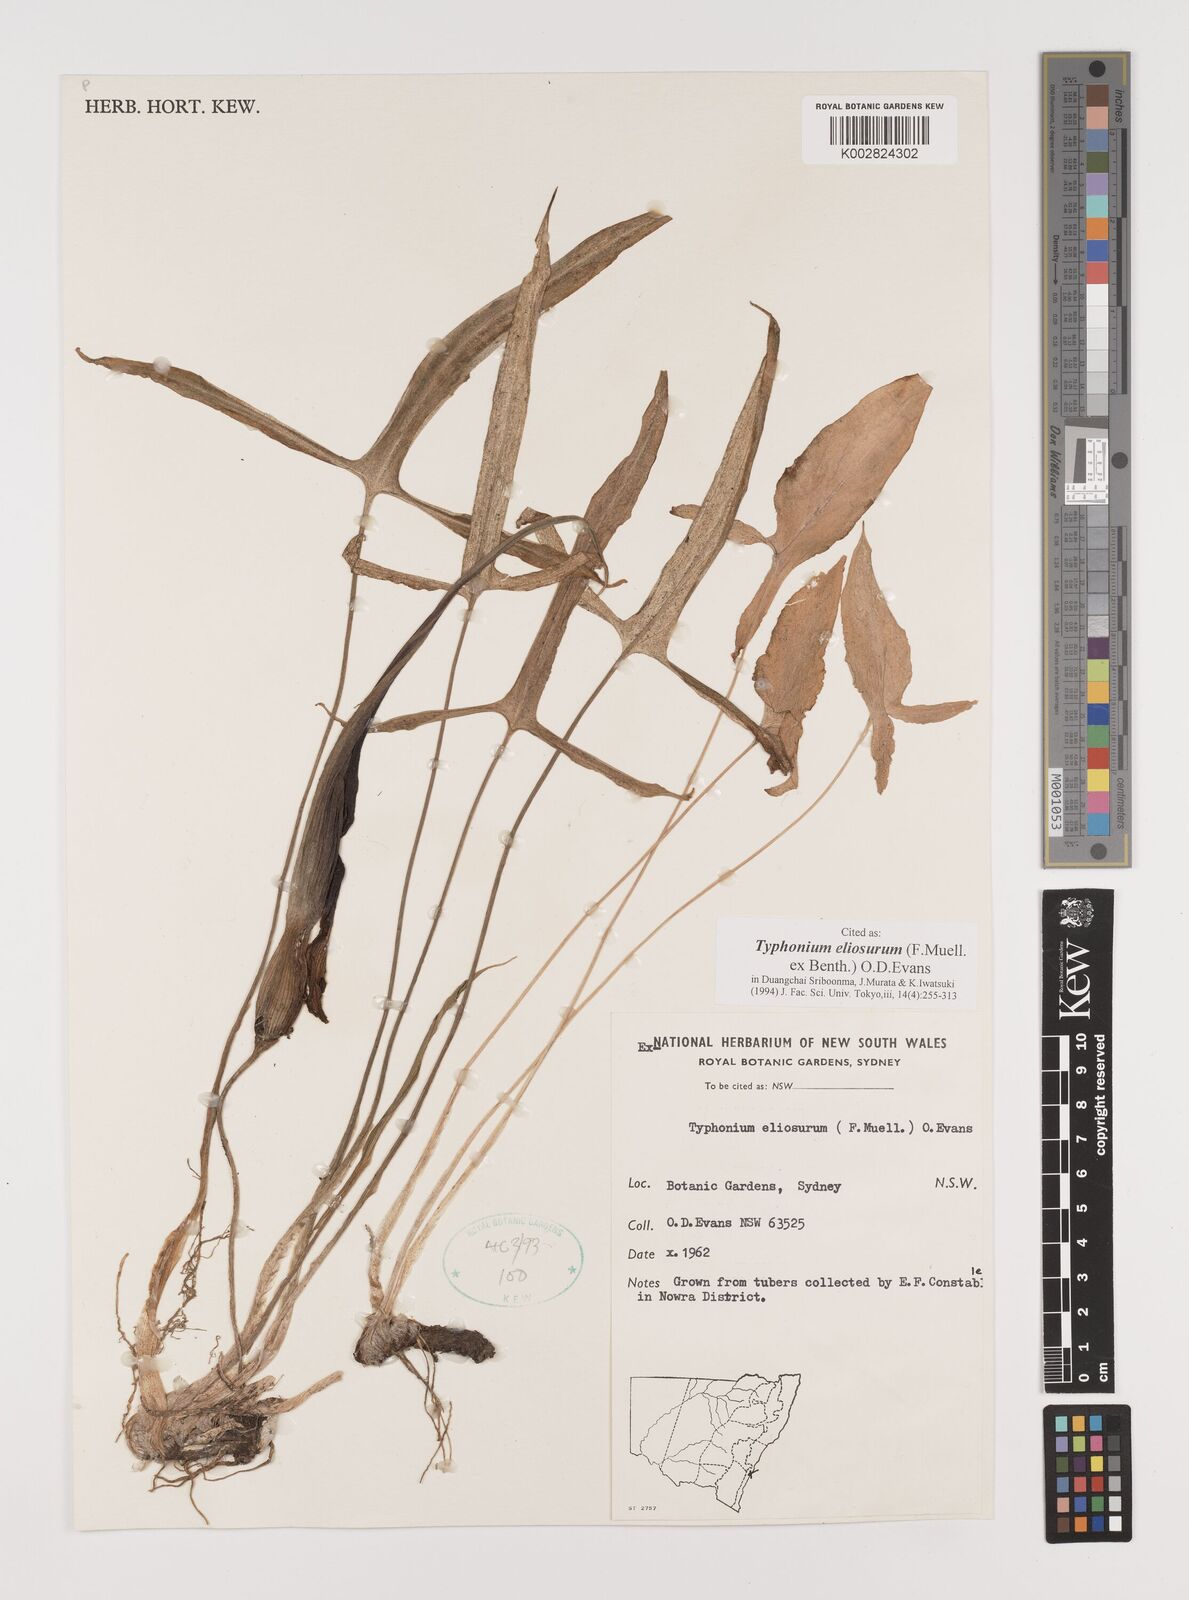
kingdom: Plantae
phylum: Tracheophyta
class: Liliopsida
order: Alismatales
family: Araceae
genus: Typhonium
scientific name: Typhonium eliosurum
